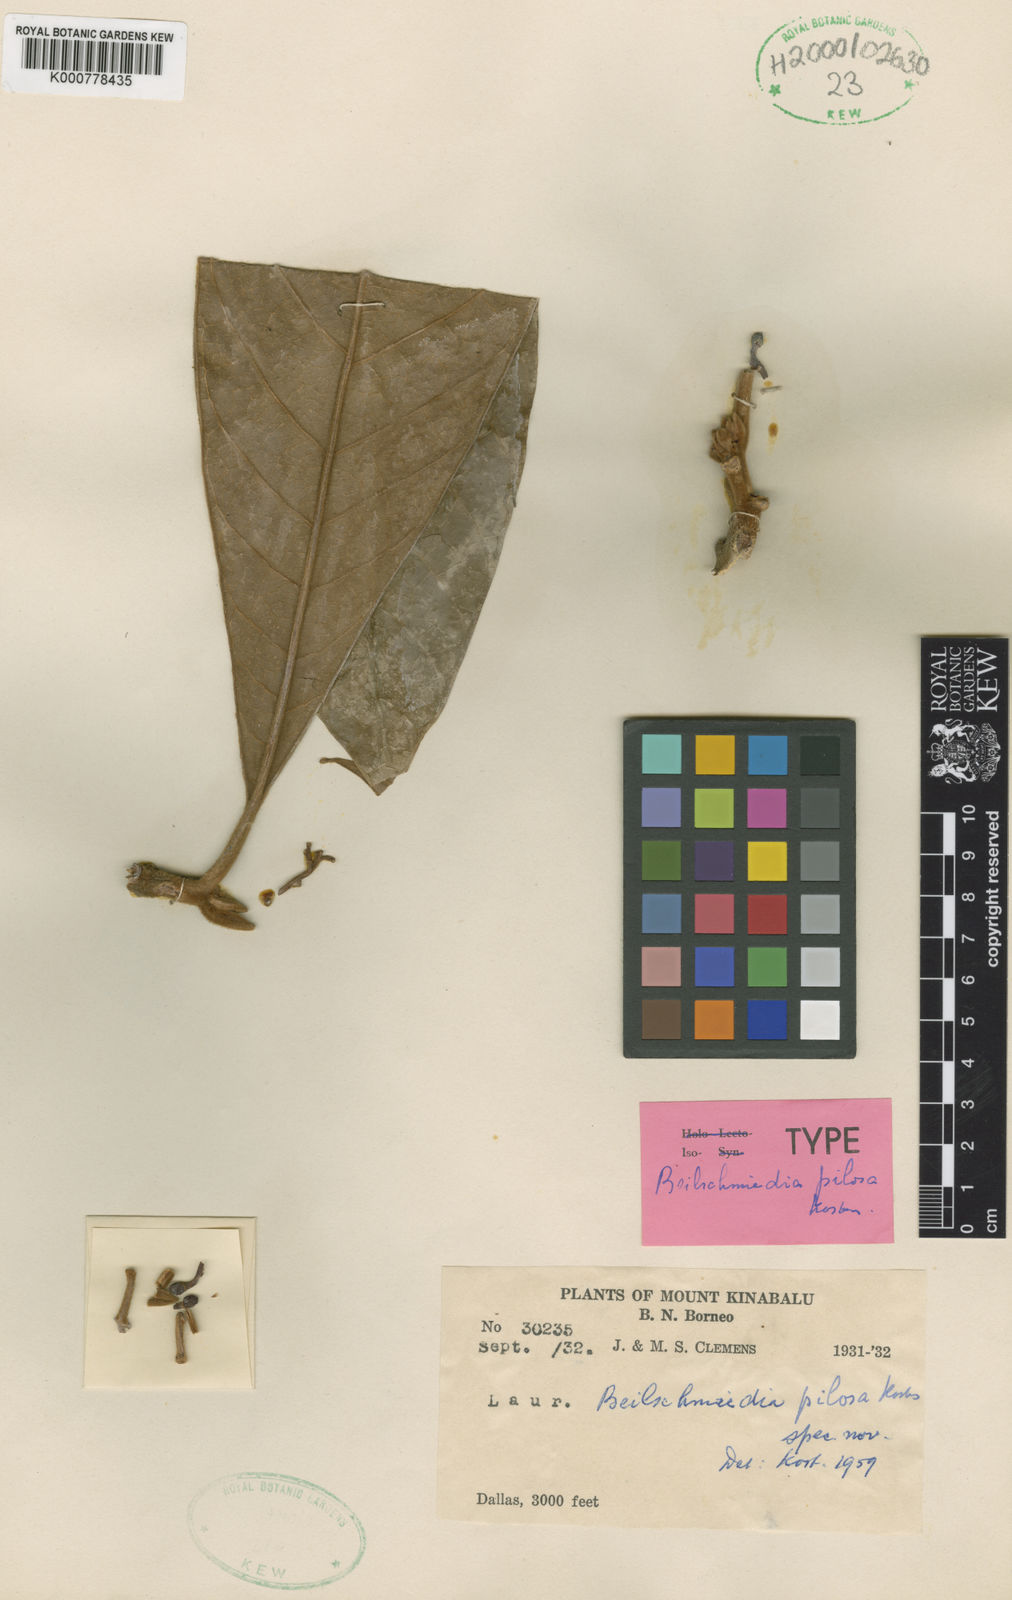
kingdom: Plantae
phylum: Tracheophyta
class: Magnoliopsida
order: Laurales
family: Lauraceae
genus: Beilschmiedia
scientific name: Beilschmiedia pilosa
